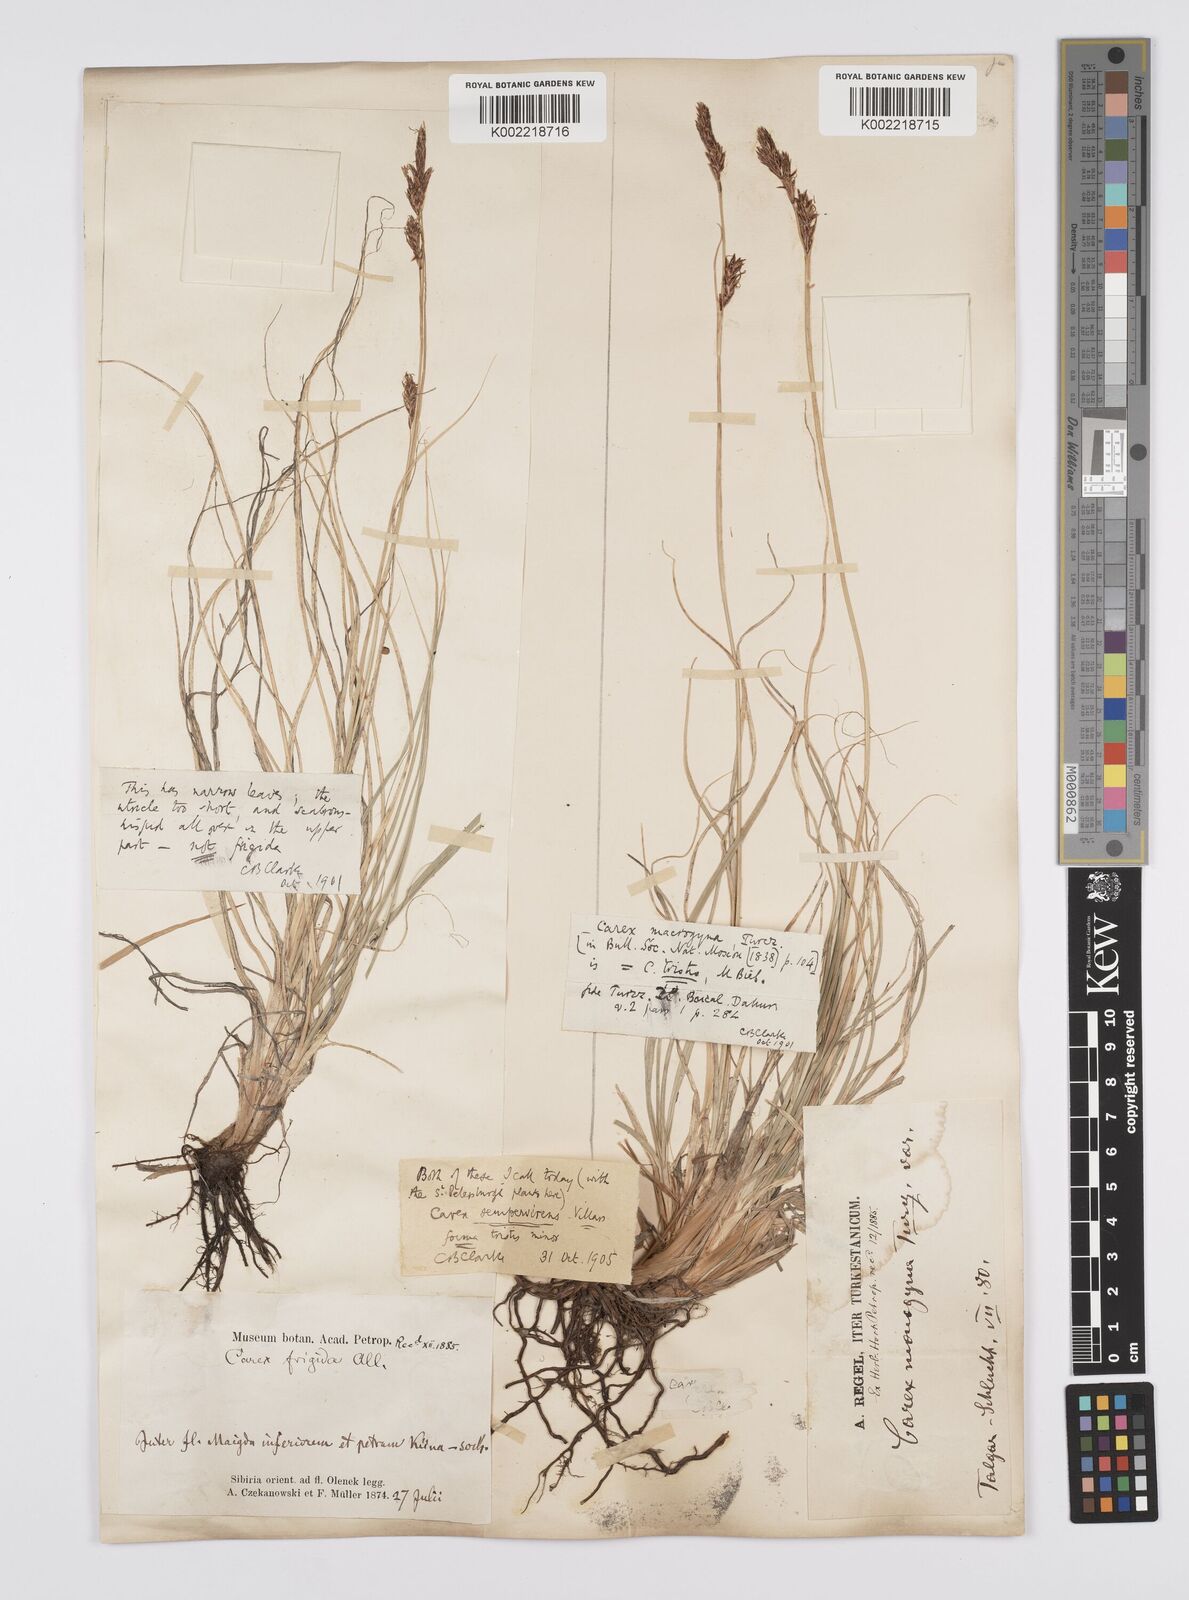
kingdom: Plantae
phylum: Tracheophyta
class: Liliopsida
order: Poales
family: Cyperaceae
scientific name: Cyperaceae
